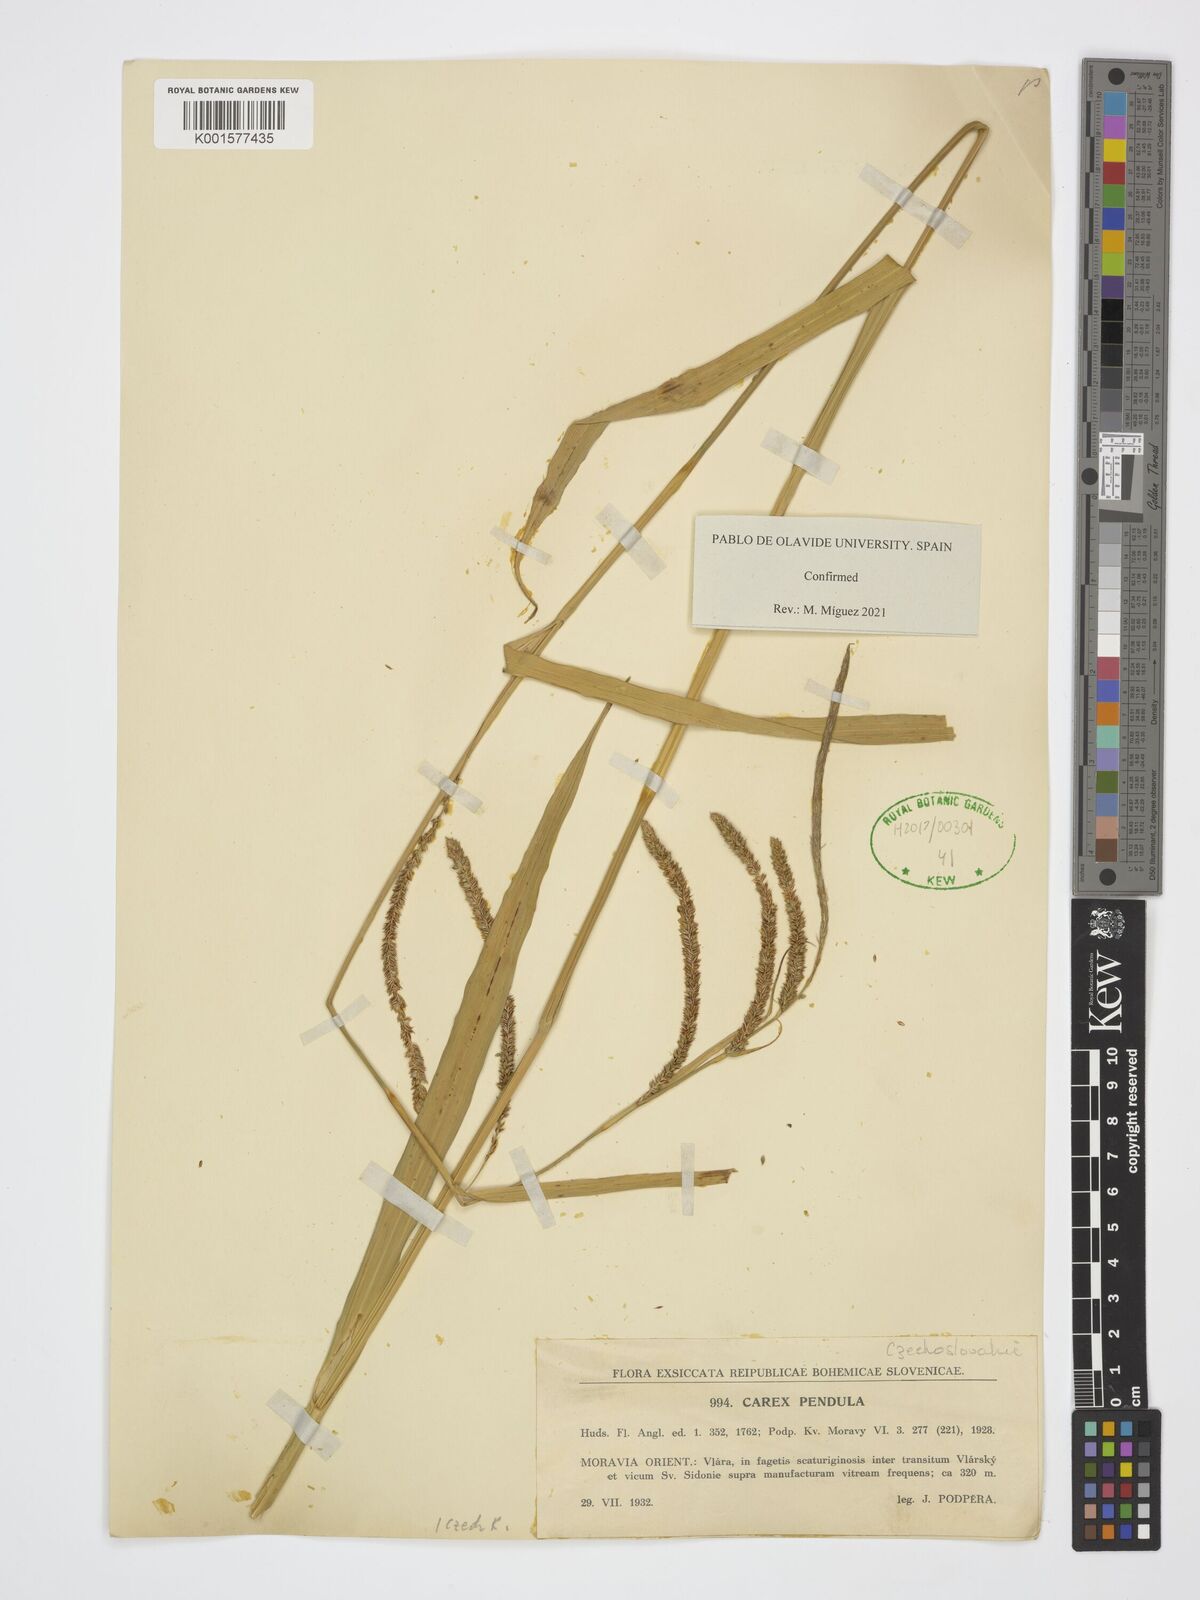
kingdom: Plantae
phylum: Tracheophyta
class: Liliopsida
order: Poales
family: Cyperaceae
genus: Carex
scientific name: Carex pendula
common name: Pendulous sedge
